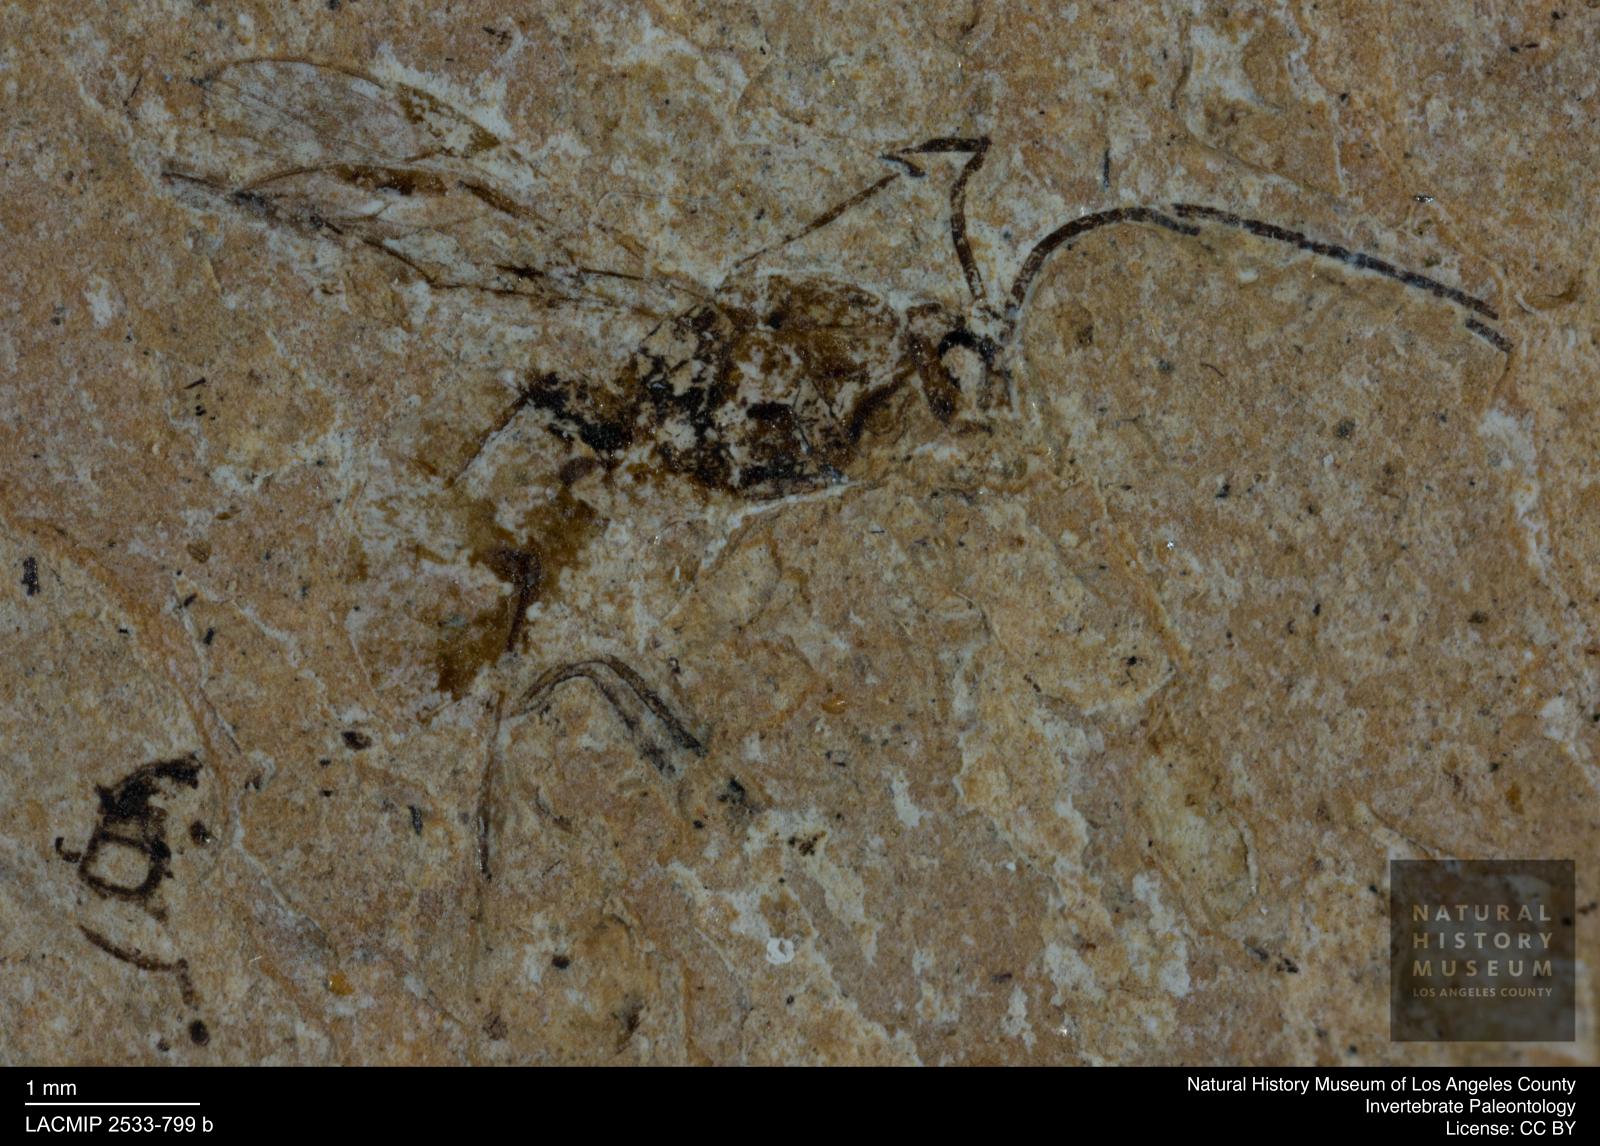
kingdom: Animalia
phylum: Arthropoda
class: Insecta
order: Hymenoptera
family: Braconidae
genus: Doryctes
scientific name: Doryctes conjectus
